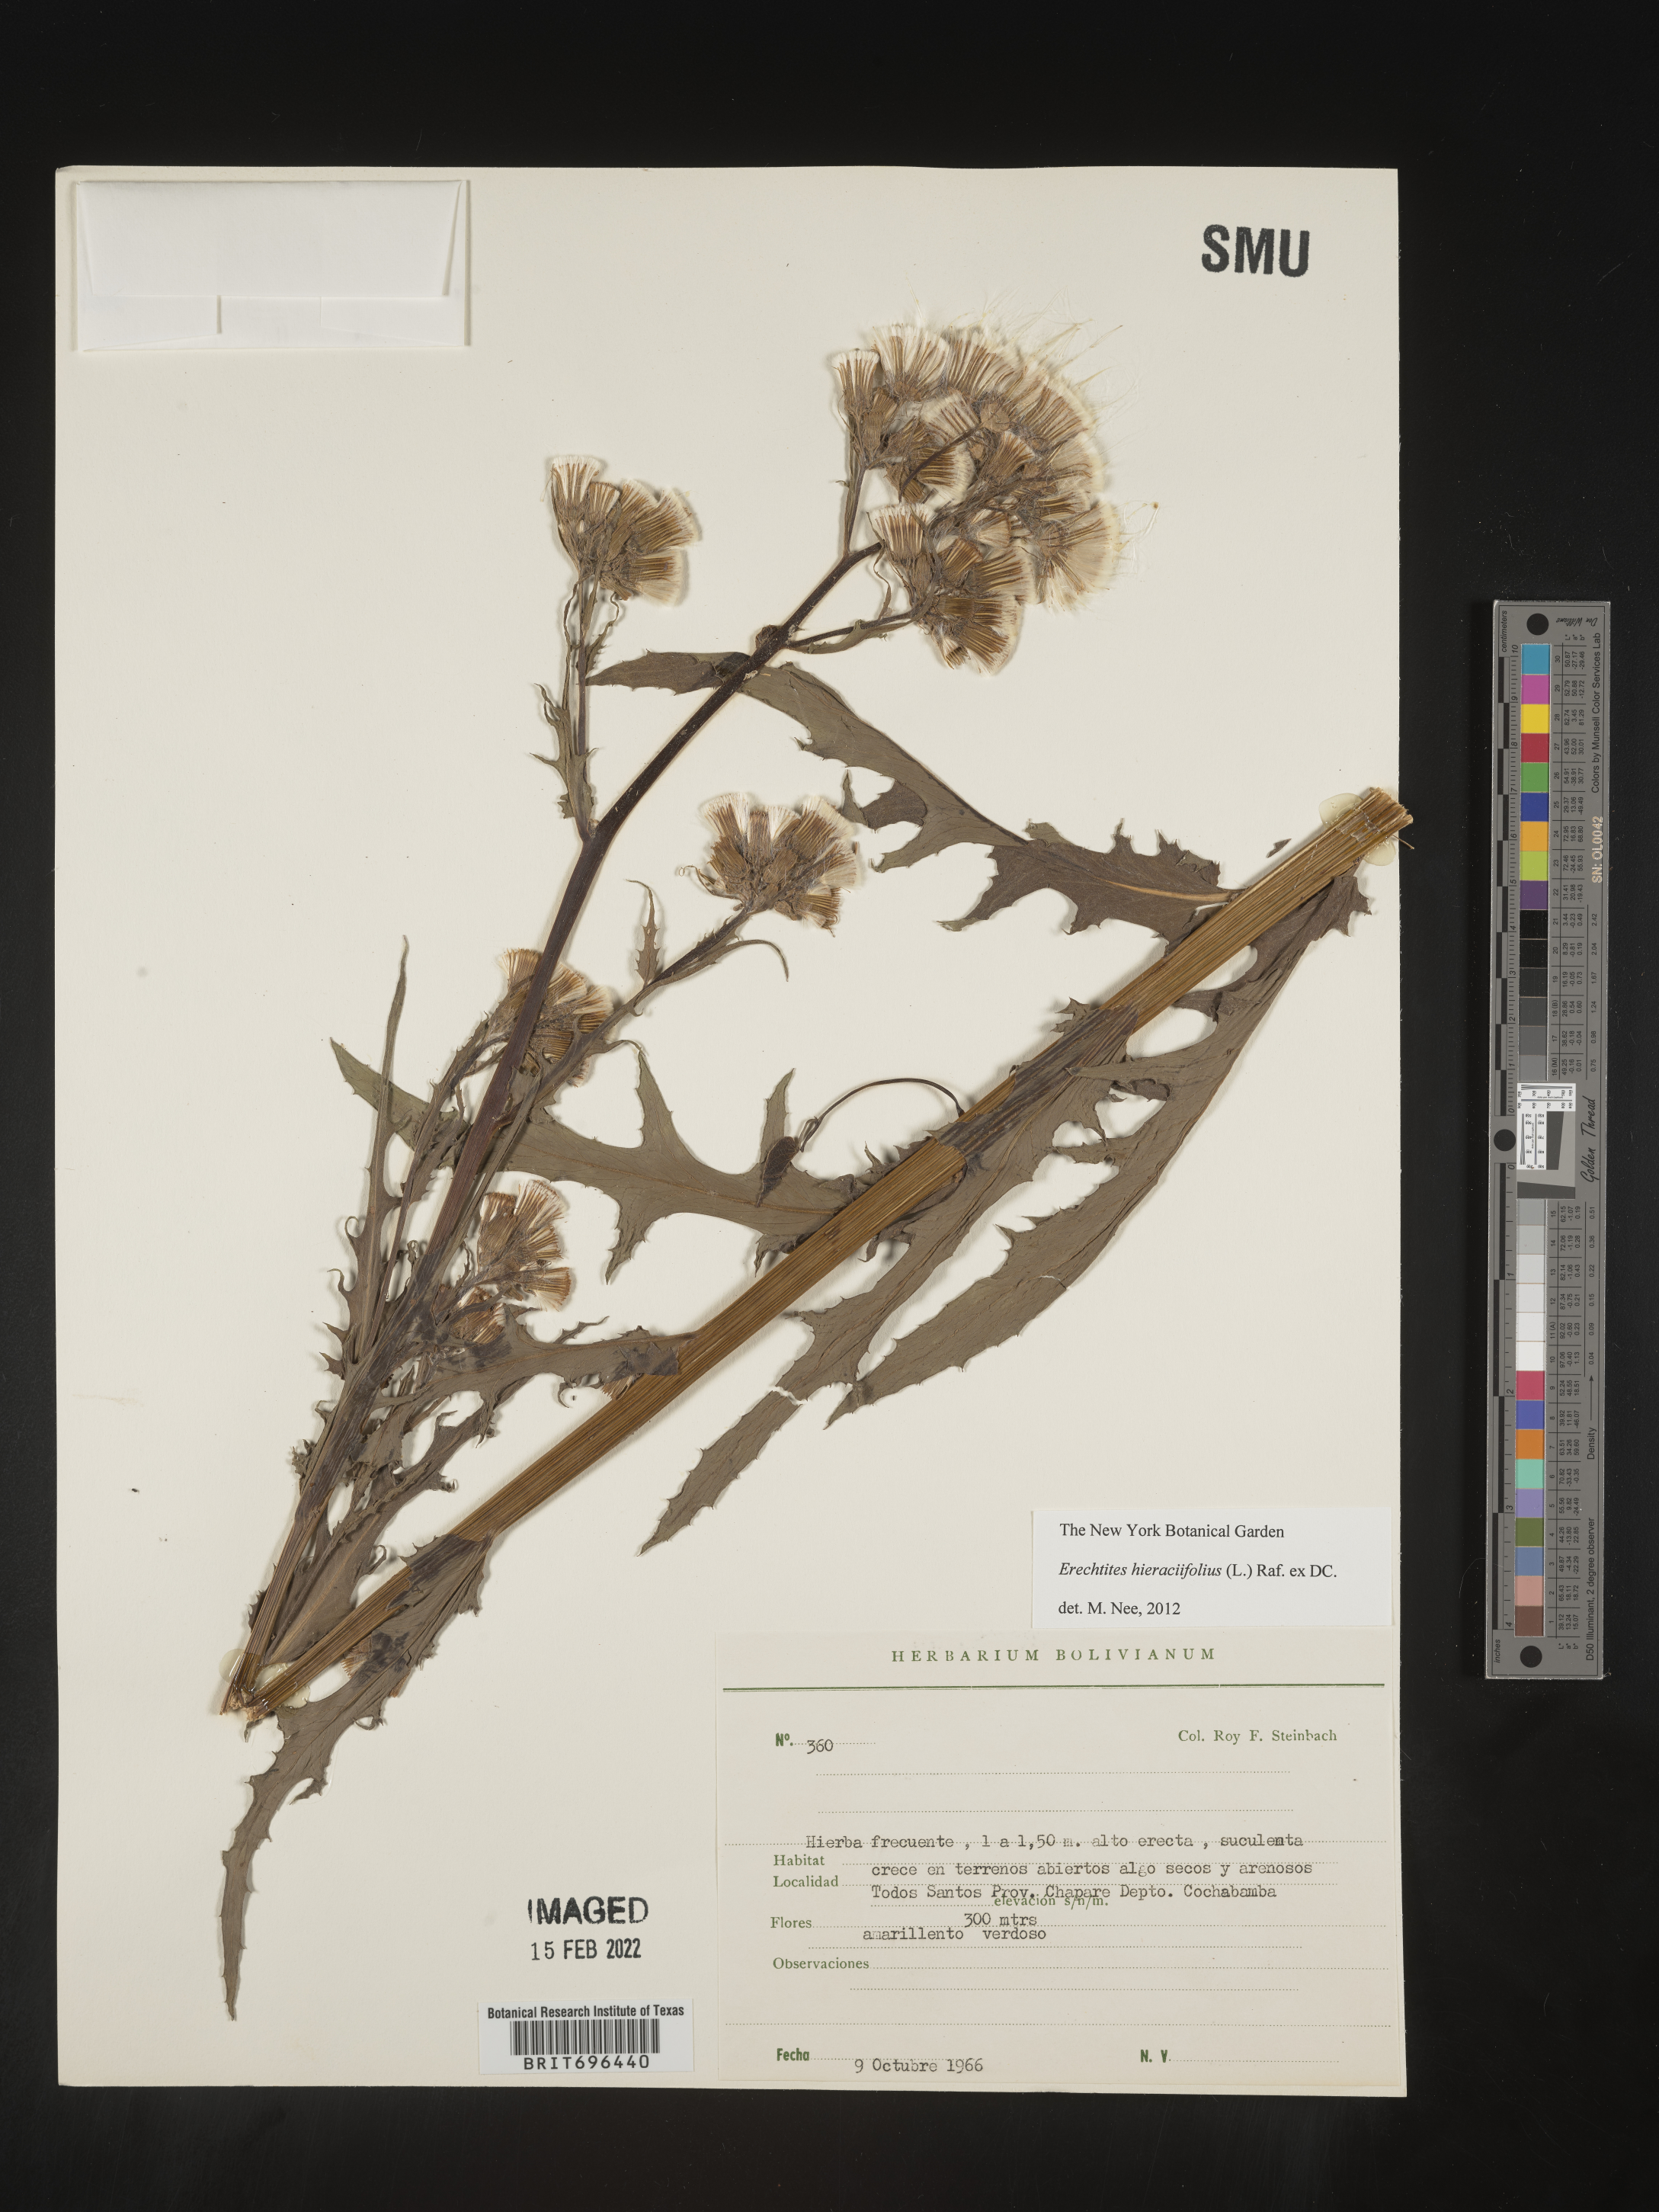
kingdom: Plantae
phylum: Tracheophyta
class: Magnoliopsida
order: Asterales
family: Asteraceae
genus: Erechtites
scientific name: Erechtites
